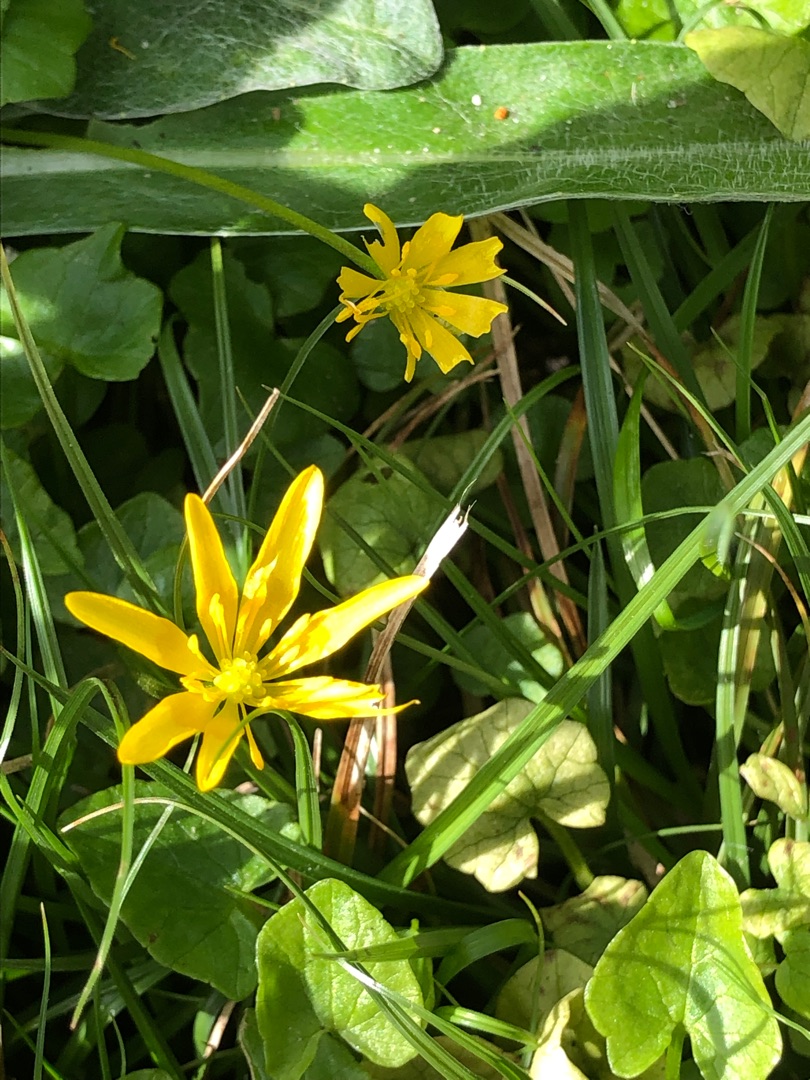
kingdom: Plantae
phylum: Tracheophyta
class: Magnoliopsida
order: Ranunculales
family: Ranunculaceae
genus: Ficaria
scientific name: Ficaria verna
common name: Vorterod
